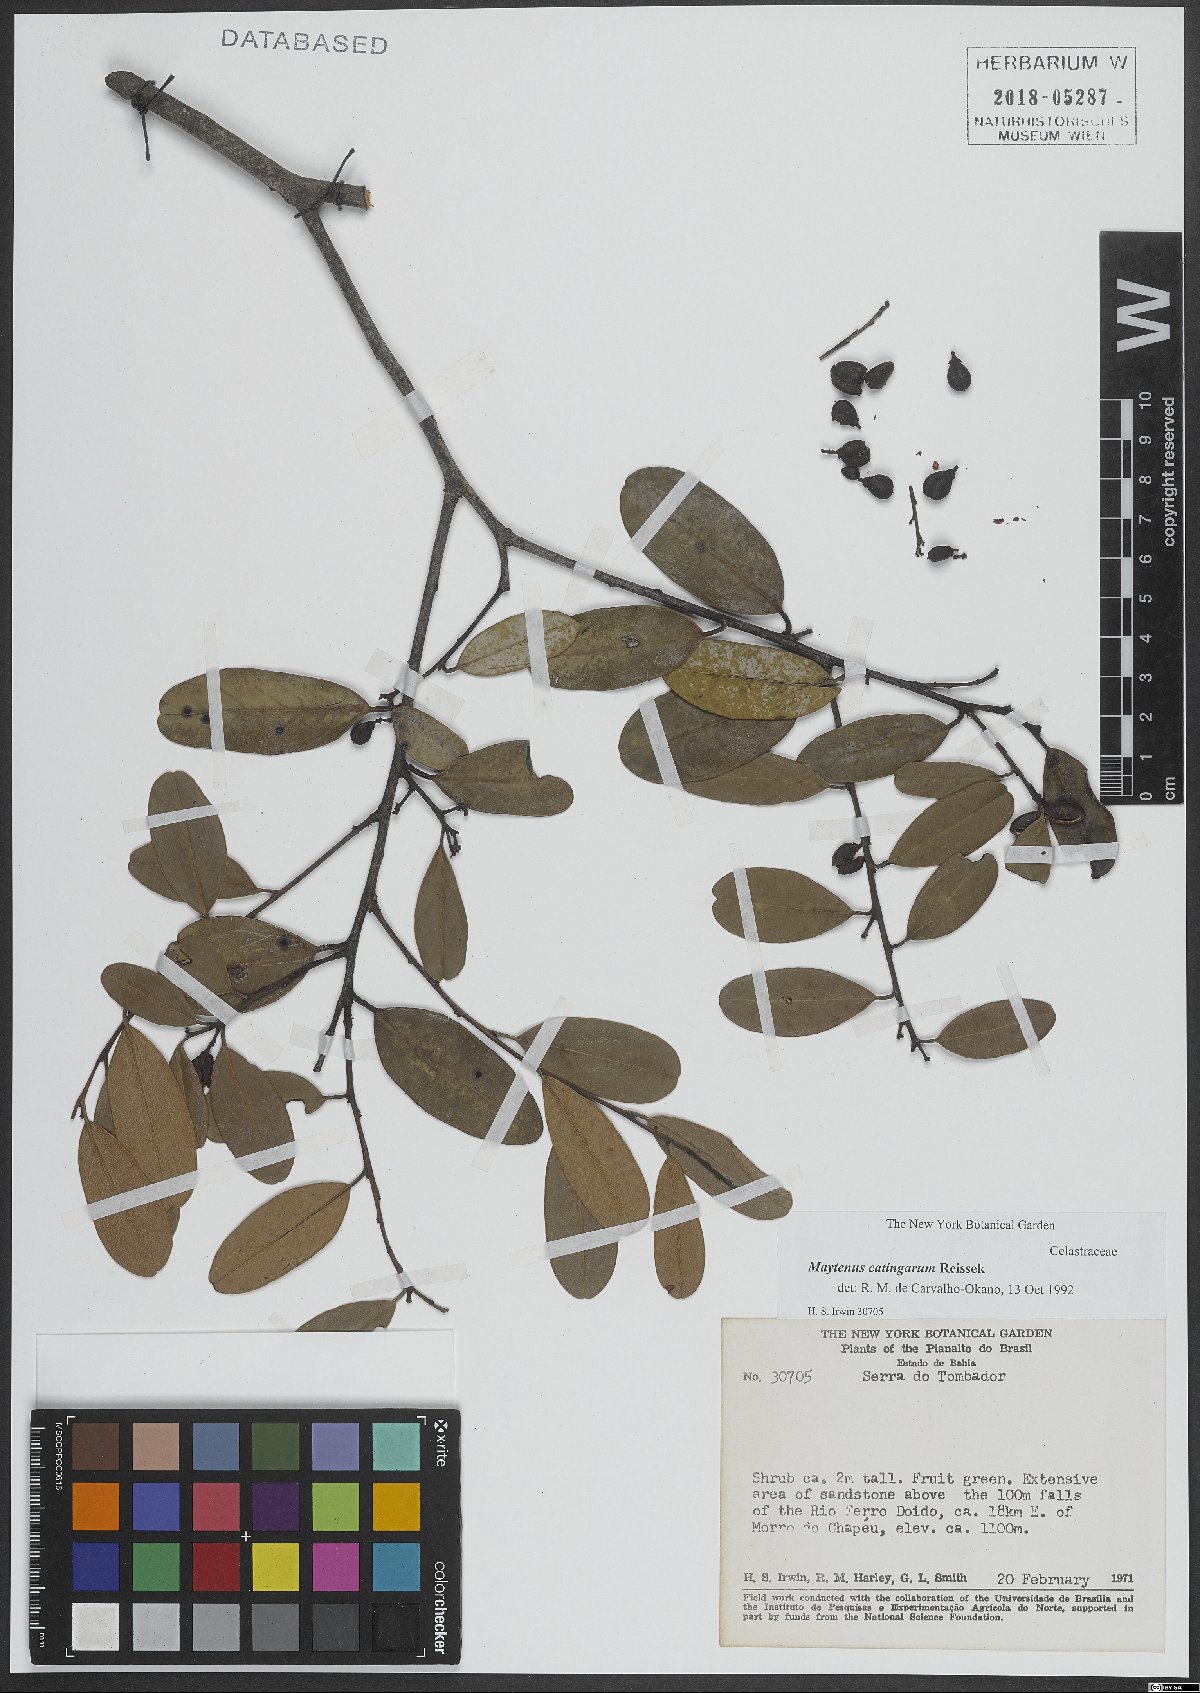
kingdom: Plantae
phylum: Tracheophyta
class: Magnoliopsida
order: Celastrales
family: Celastraceae
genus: Monteverdia
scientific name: Monteverdia catingarum
